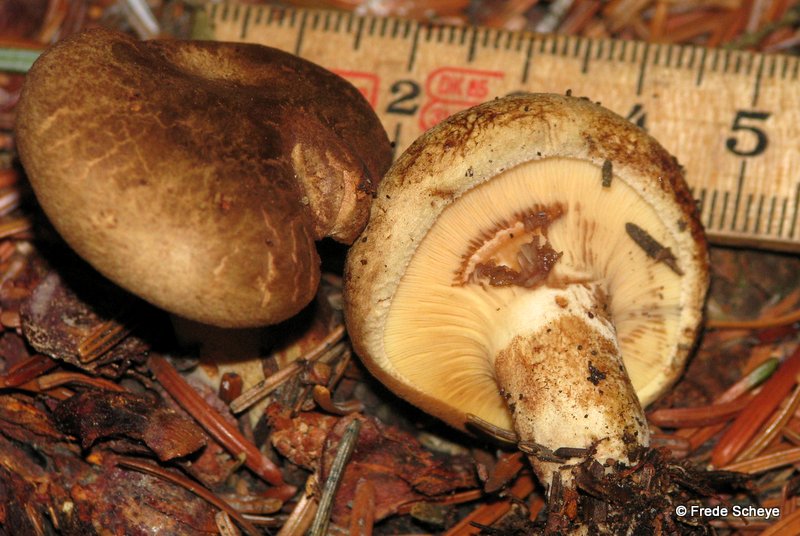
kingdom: Fungi
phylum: Basidiomycota
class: Agaricomycetes
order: Boletales
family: Paxillaceae
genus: Paxillus
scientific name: Paxillus involutus
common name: almindelig netbladhat
